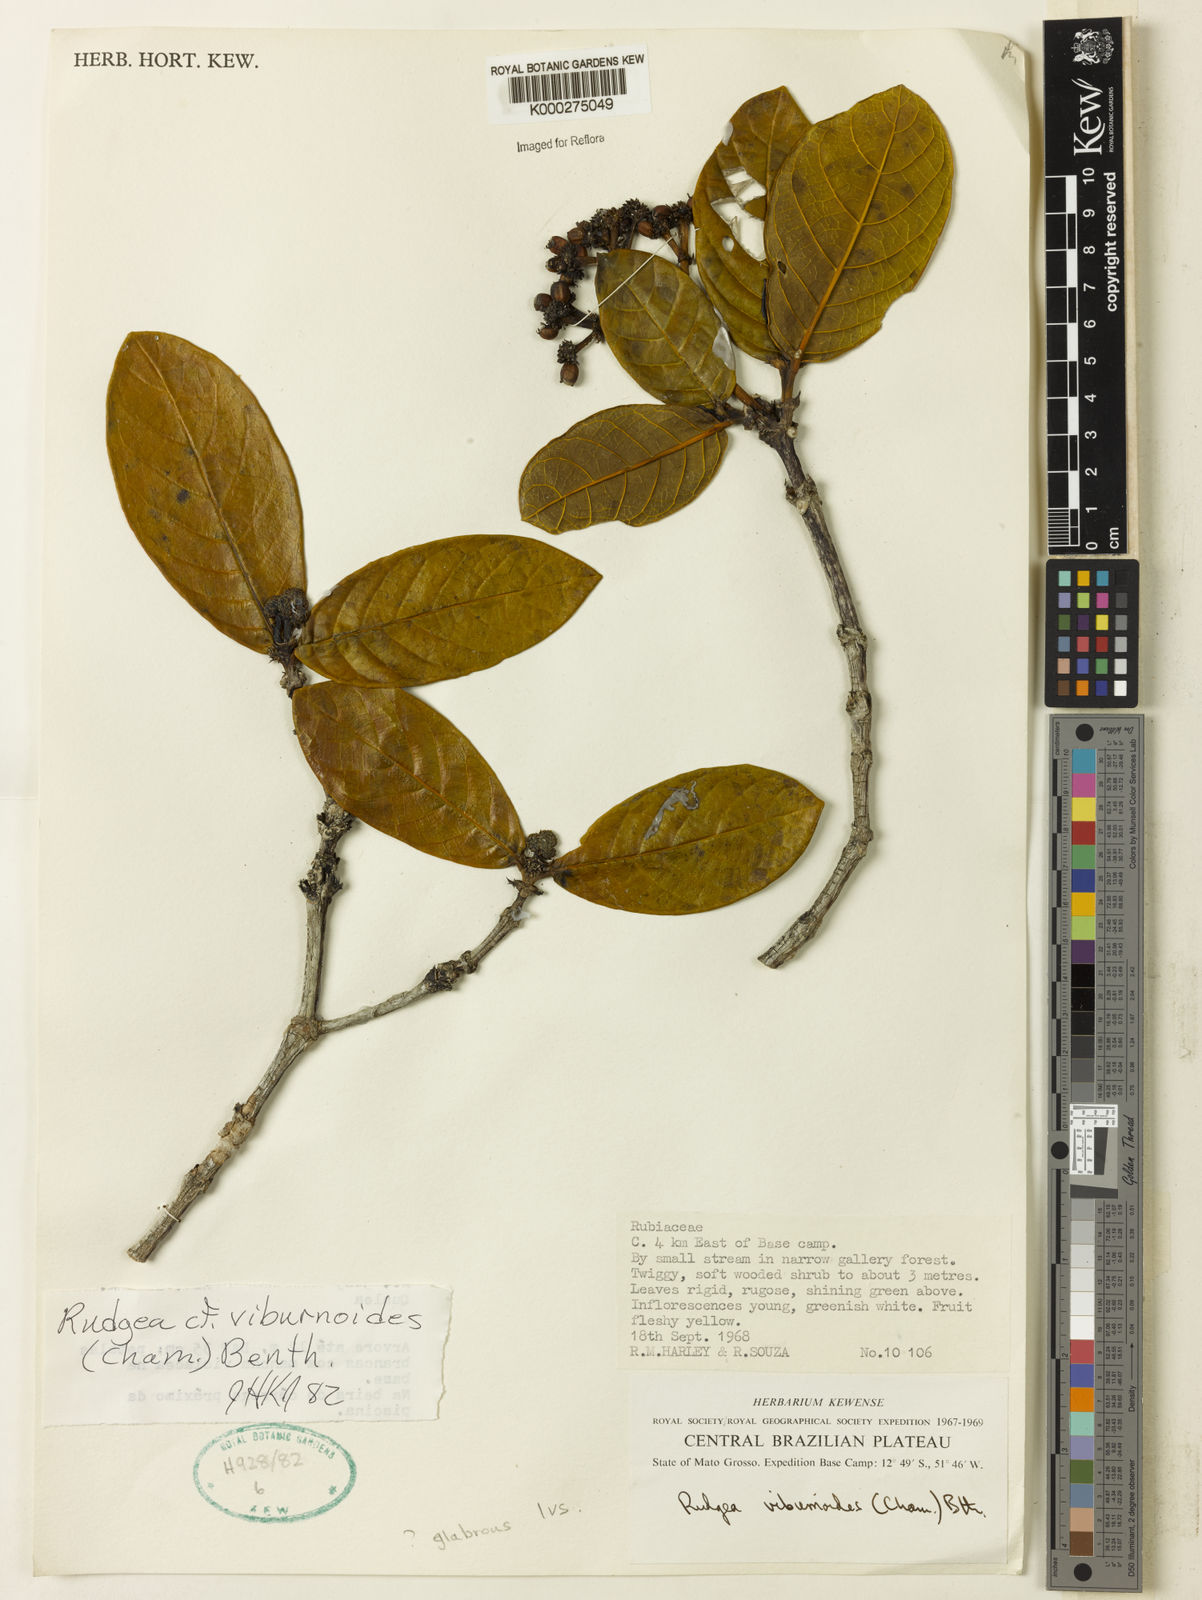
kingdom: Plantae
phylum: Tracheophyta
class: Magnoliopsida
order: Gentianales
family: Rubiaceae
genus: Rudgea
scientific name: Rudgea viburnoides
